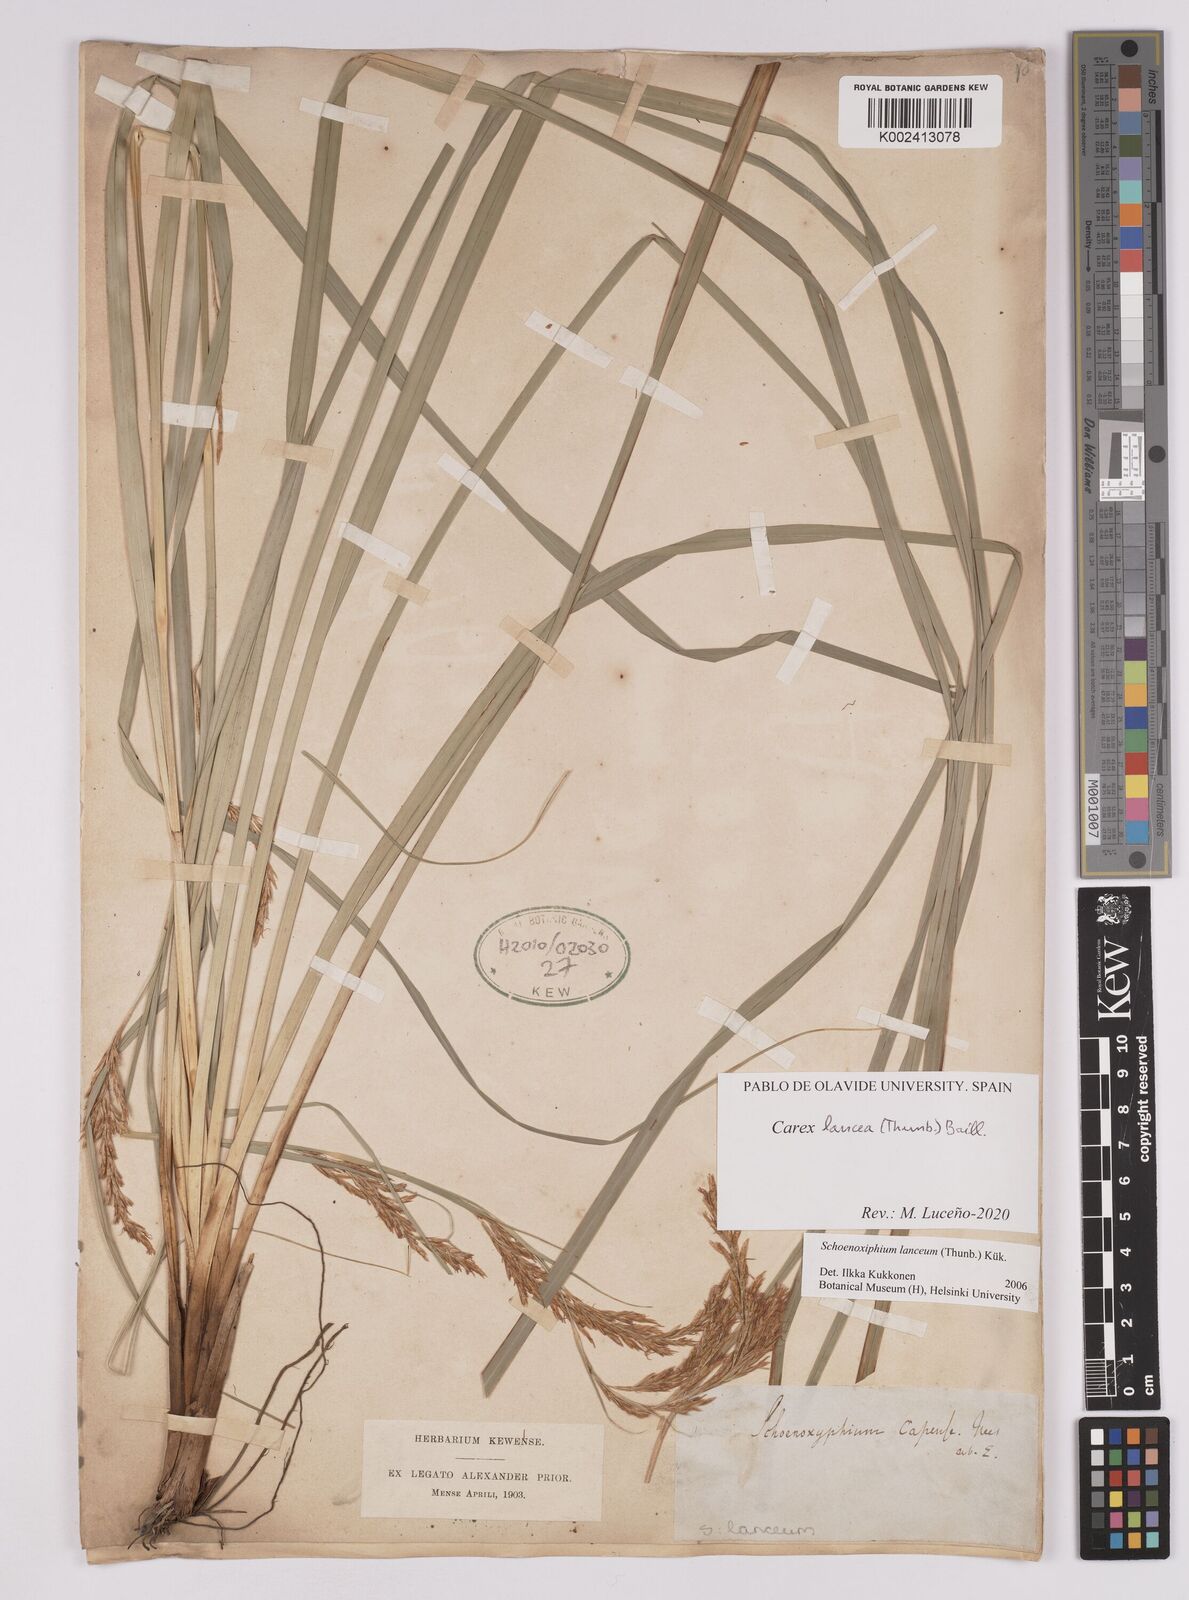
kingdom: Plantae
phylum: Tracheophyta
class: Liliopsida
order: Poales
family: Cyperaceae
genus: Carex
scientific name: Carex lancea
